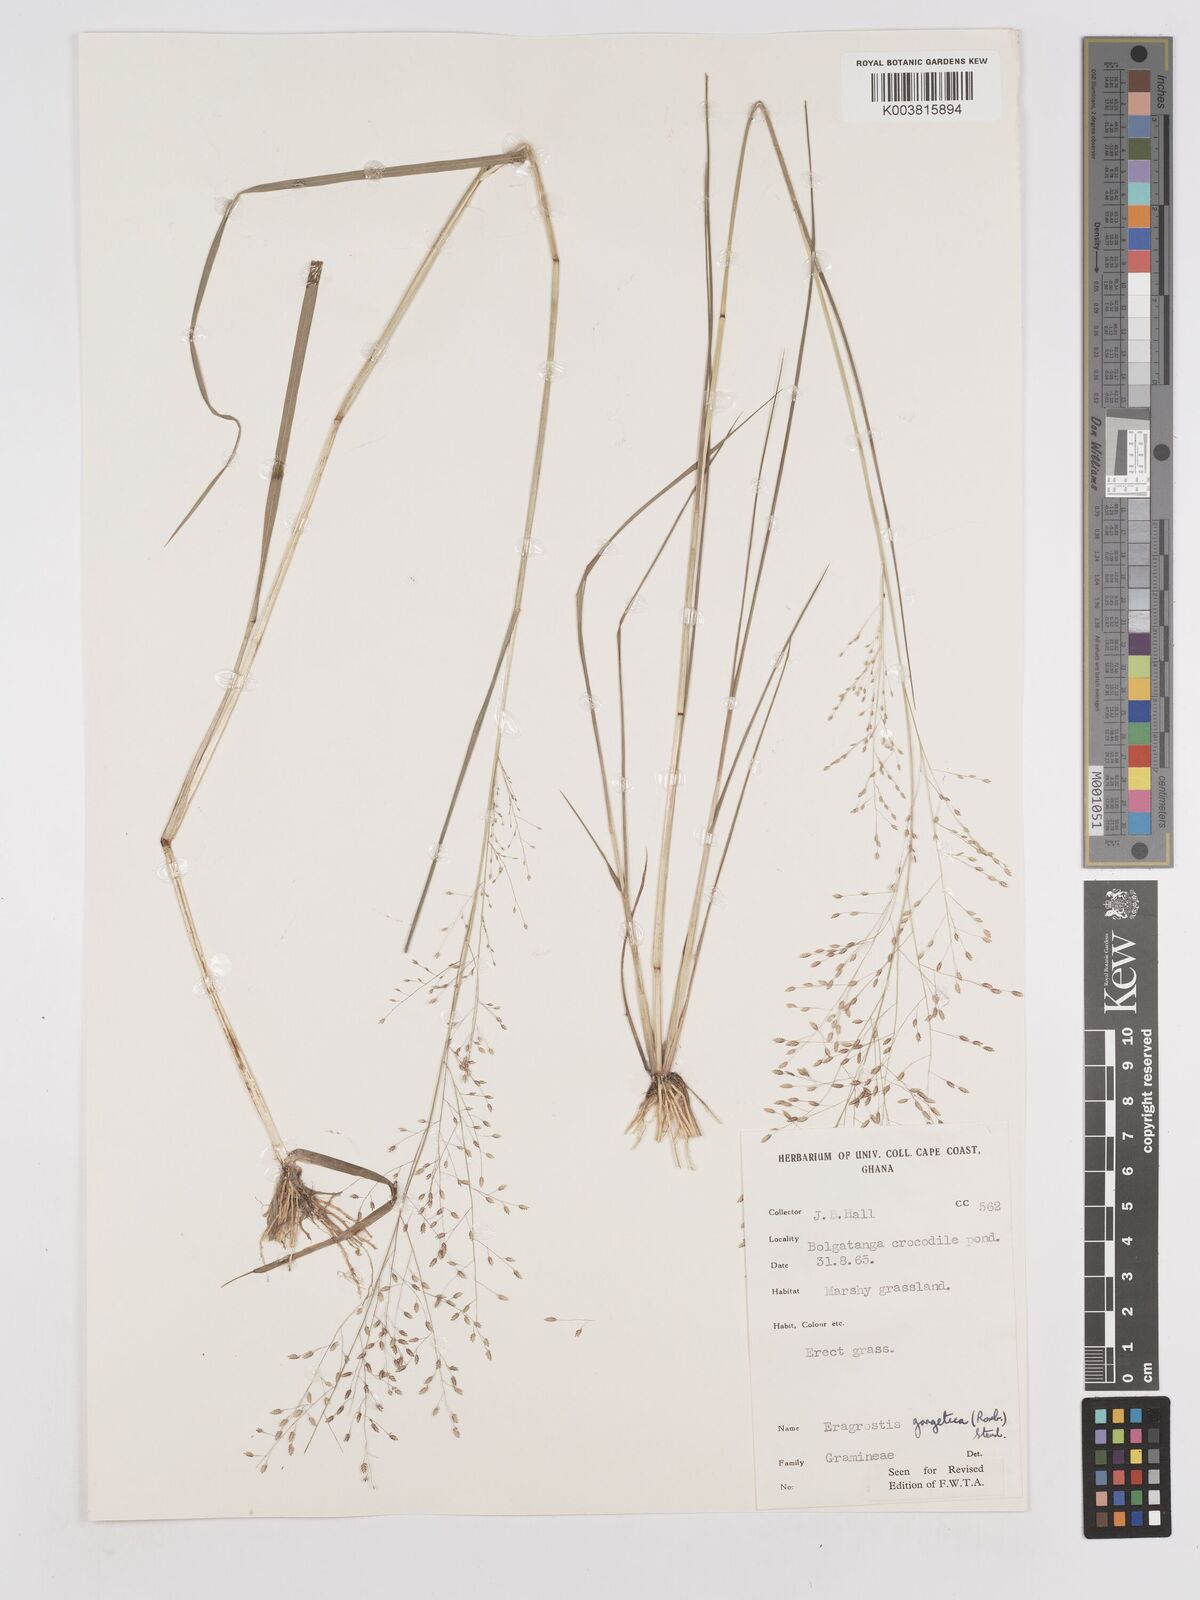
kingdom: Plantae
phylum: Tracheophyta
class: Liliopsida
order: Poales
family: Poaceae
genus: Eragrostis
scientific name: Eragrostis gangetica
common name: Slimflower lovegrass
